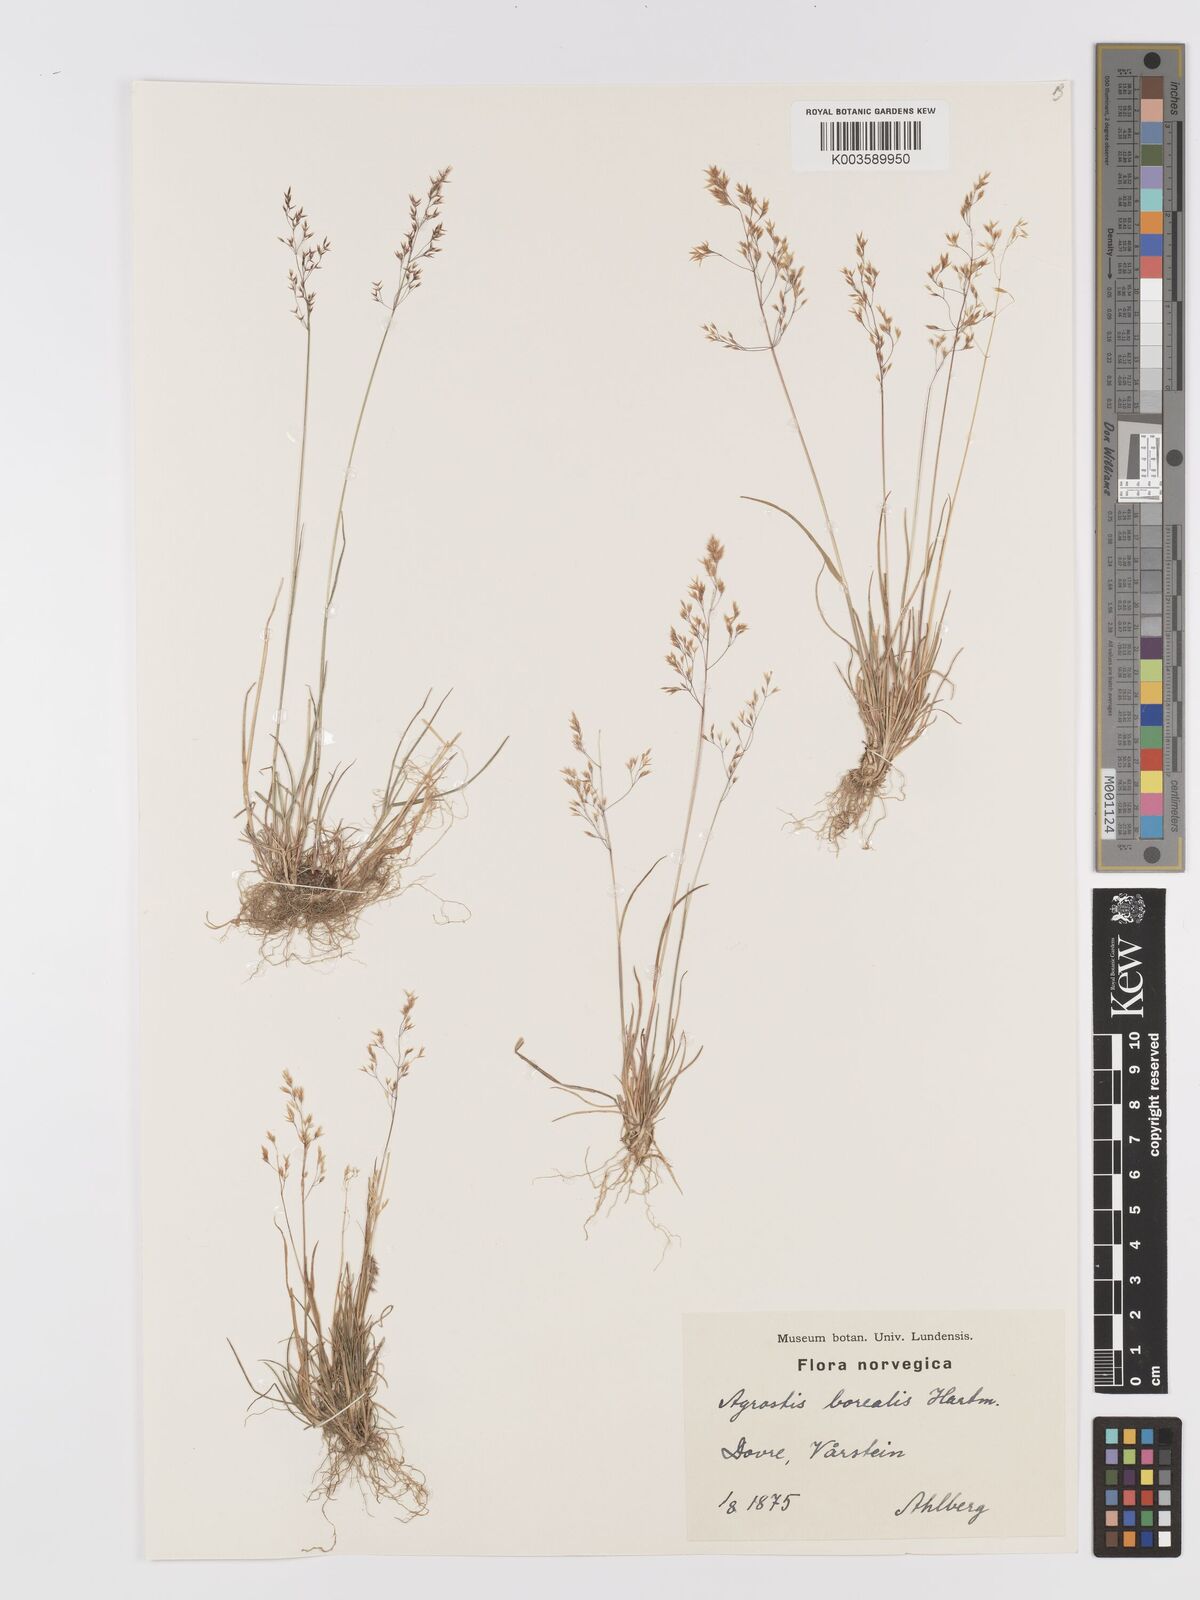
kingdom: Plantae
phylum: Tracheophyta
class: Liliopsida
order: Poales
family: Poaceae
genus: Agrostis
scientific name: Agrostis mertensii
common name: Northern bent
